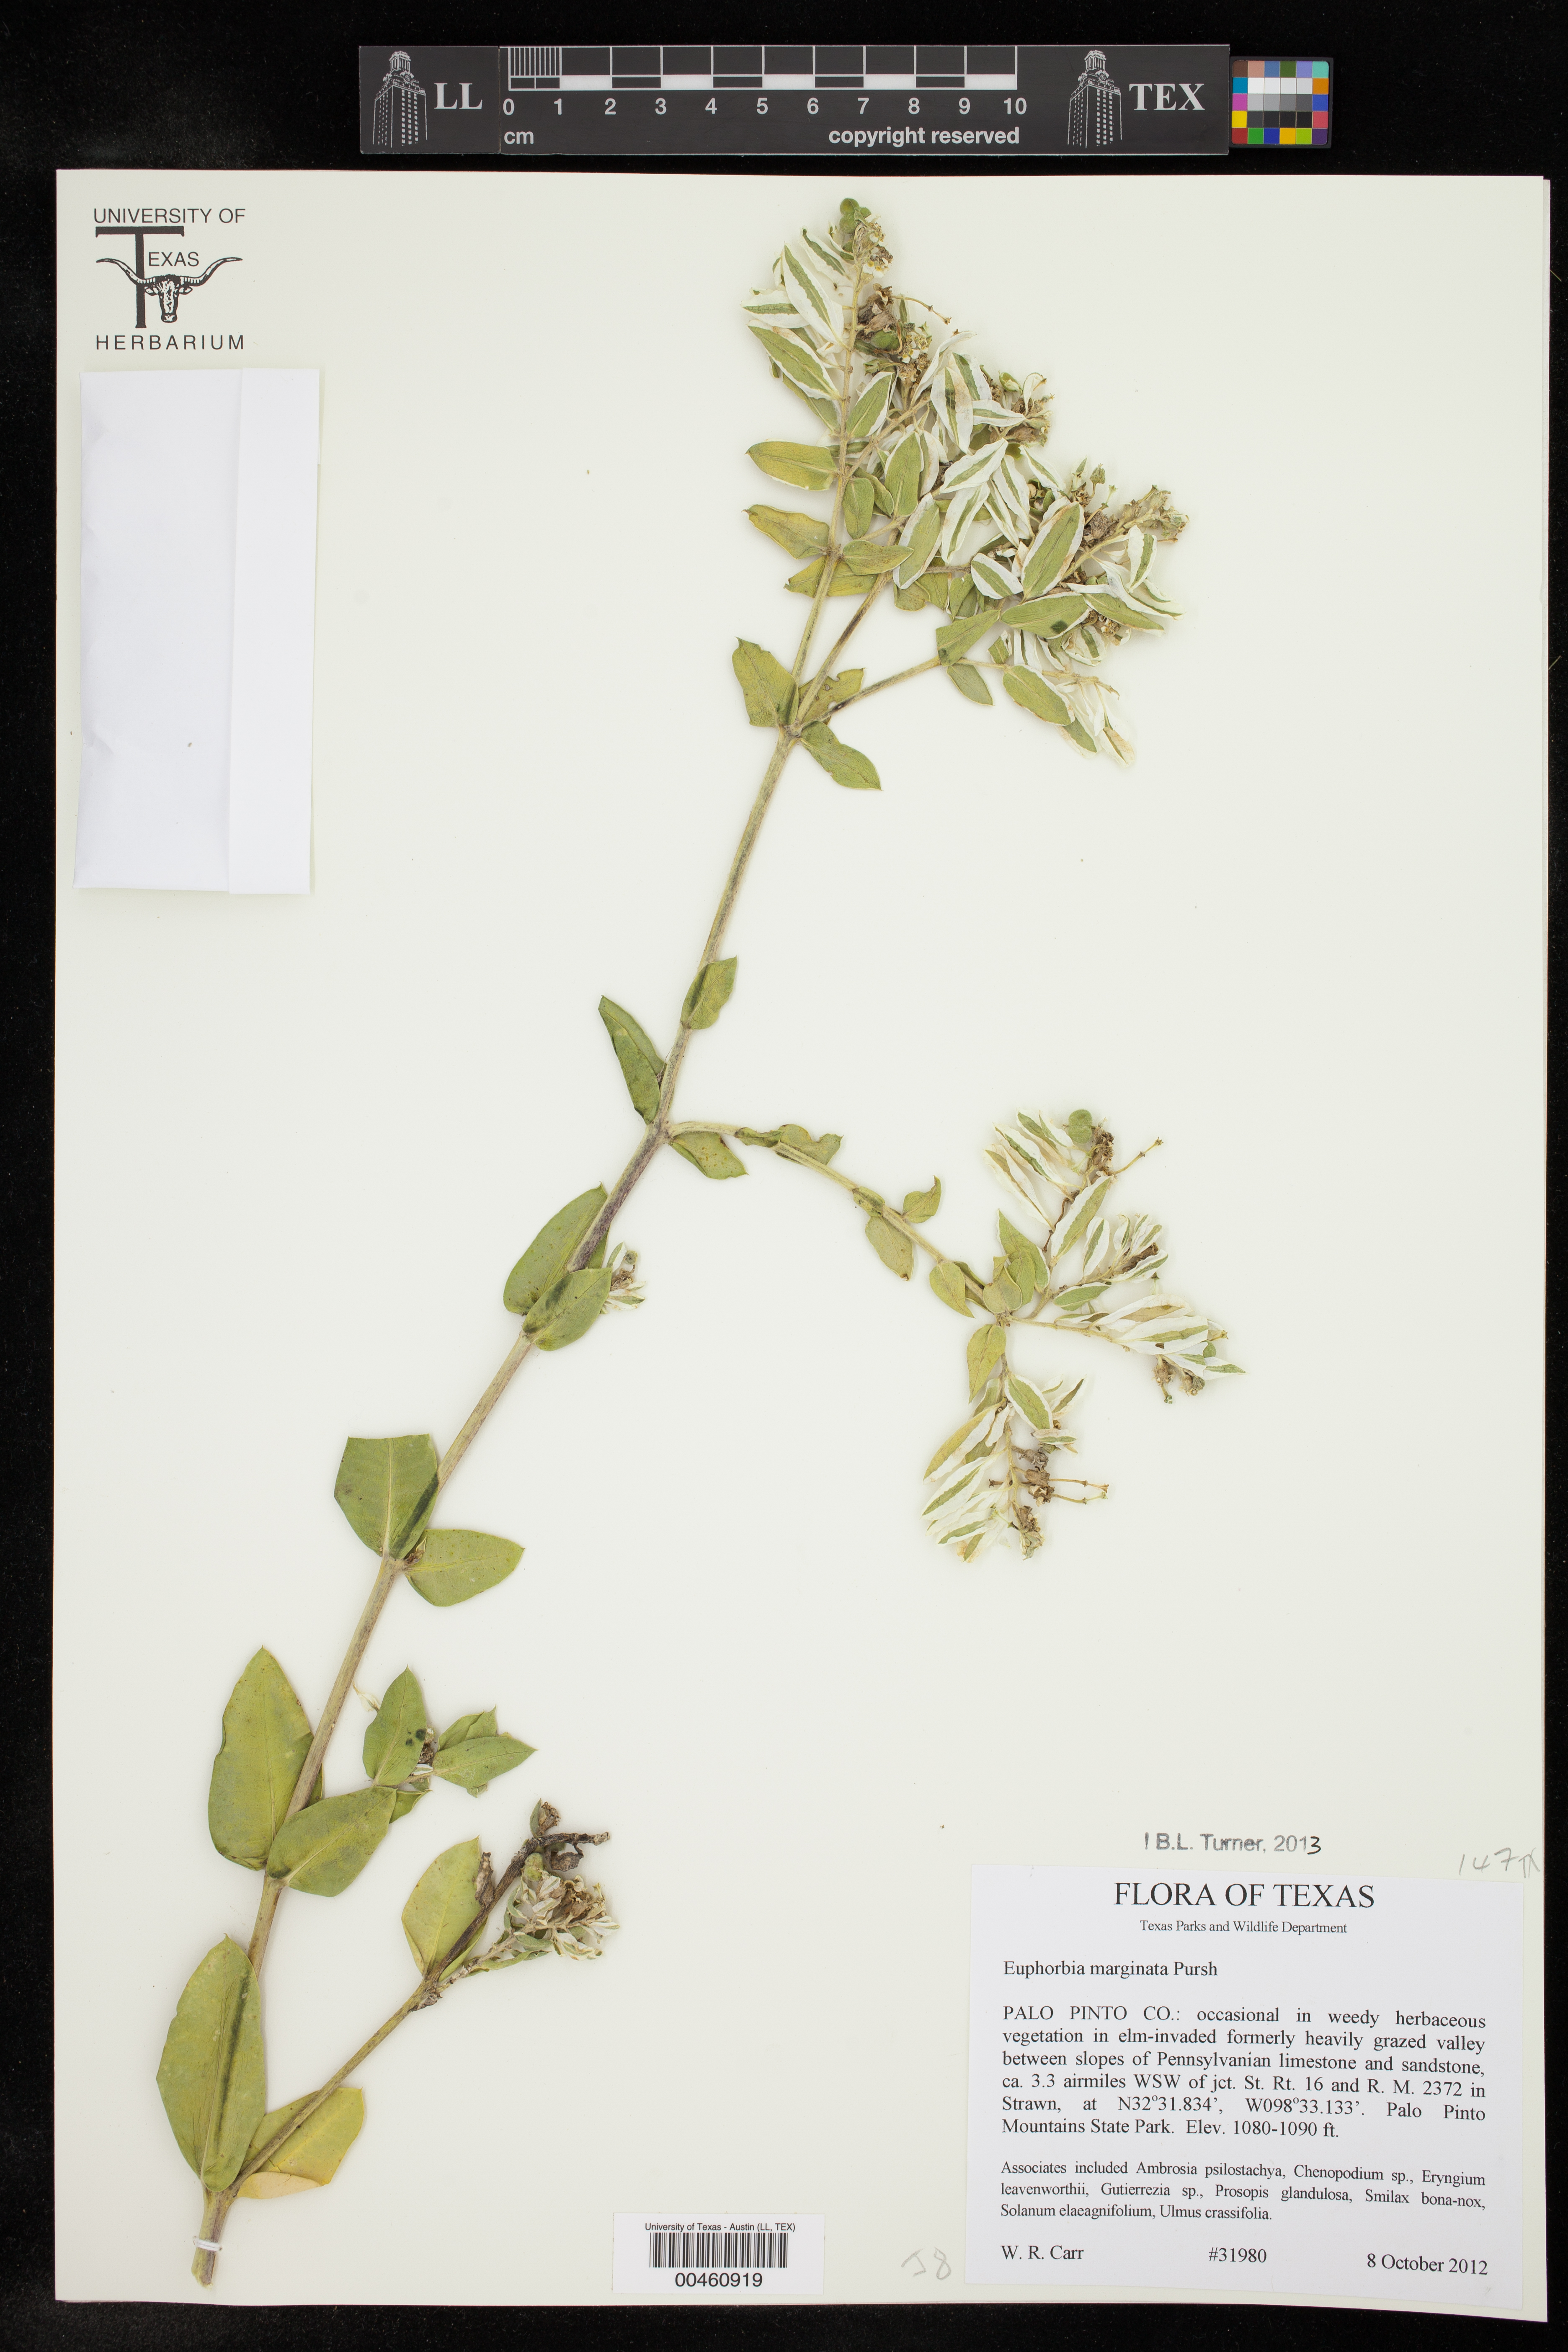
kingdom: Plantae
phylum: Tracheophyta
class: Magnoliopsida
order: Malpighiales
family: Euphorbiaceae
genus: Euphorbia
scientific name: Euphorbia marginata
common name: Ghostweed
